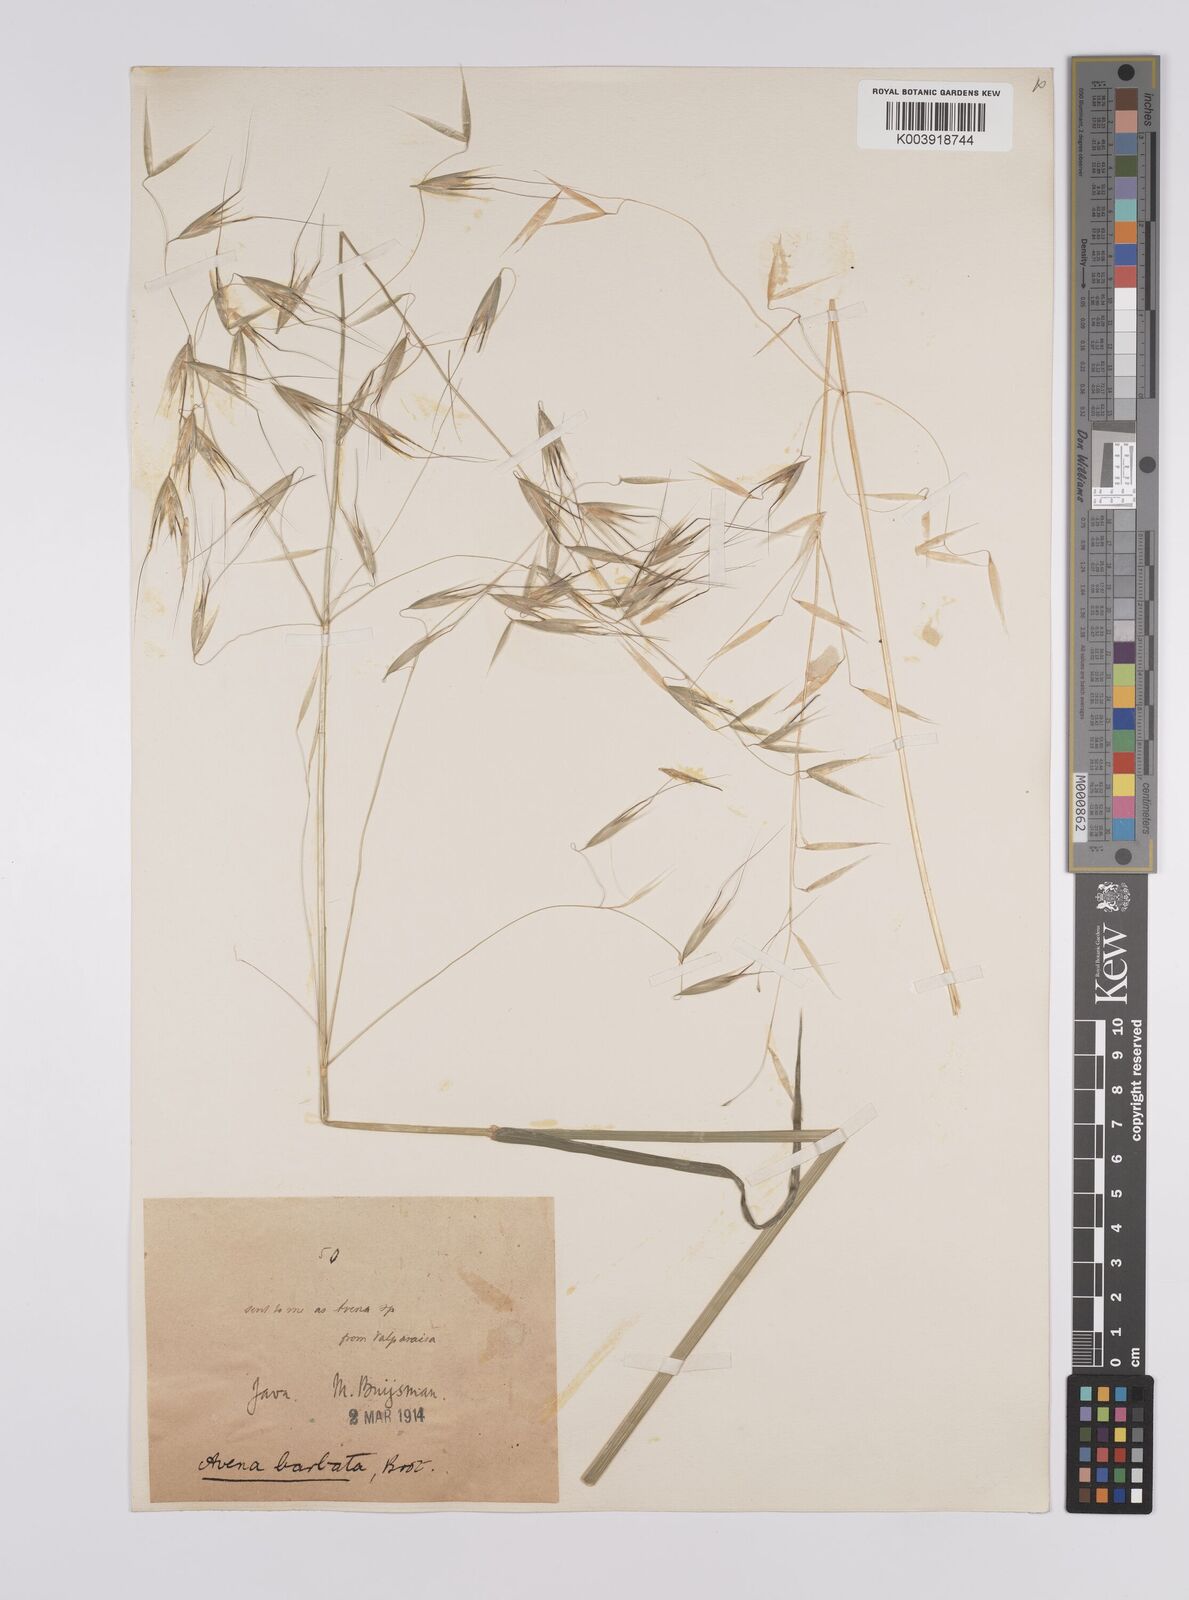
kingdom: Plantae
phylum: Tracheophyta
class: Liliopsida
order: Poales
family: Poaceae
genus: Avena
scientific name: Avena
